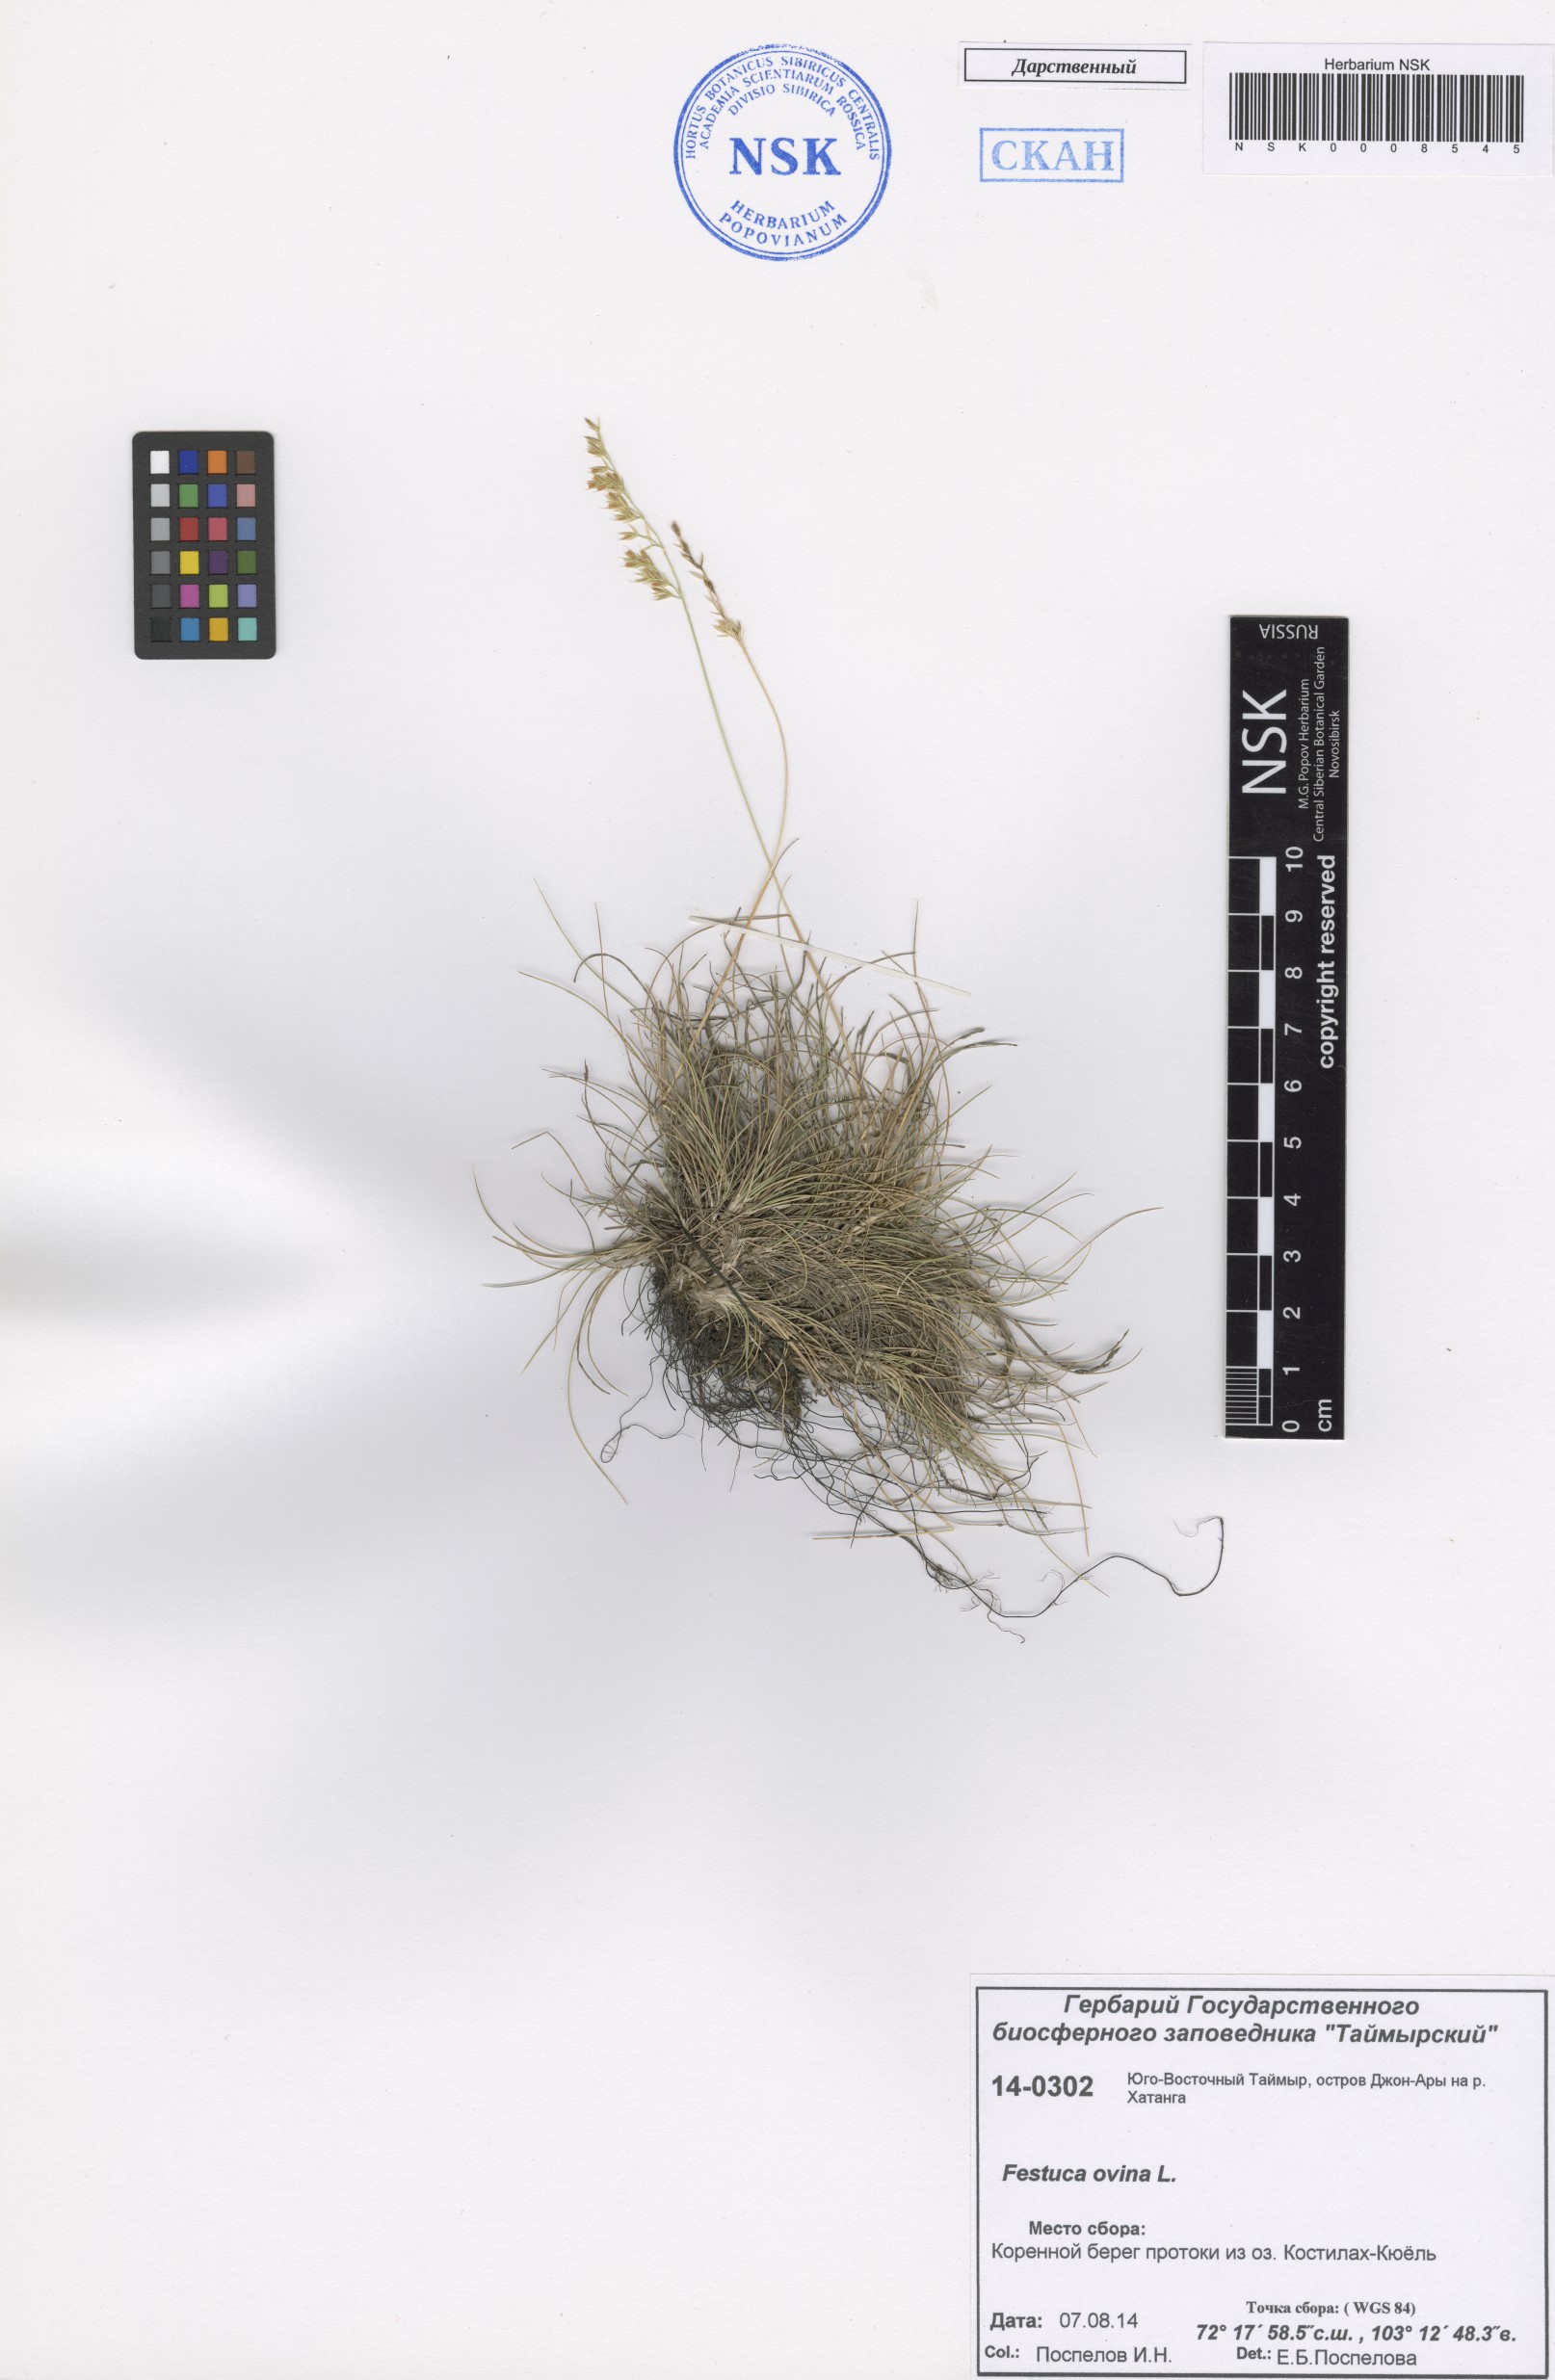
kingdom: Plantae
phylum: Tracheophyta
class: Liliopsida
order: Poales
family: Poaceae
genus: Festuca
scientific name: Festuca ovina
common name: Sheep fescue
